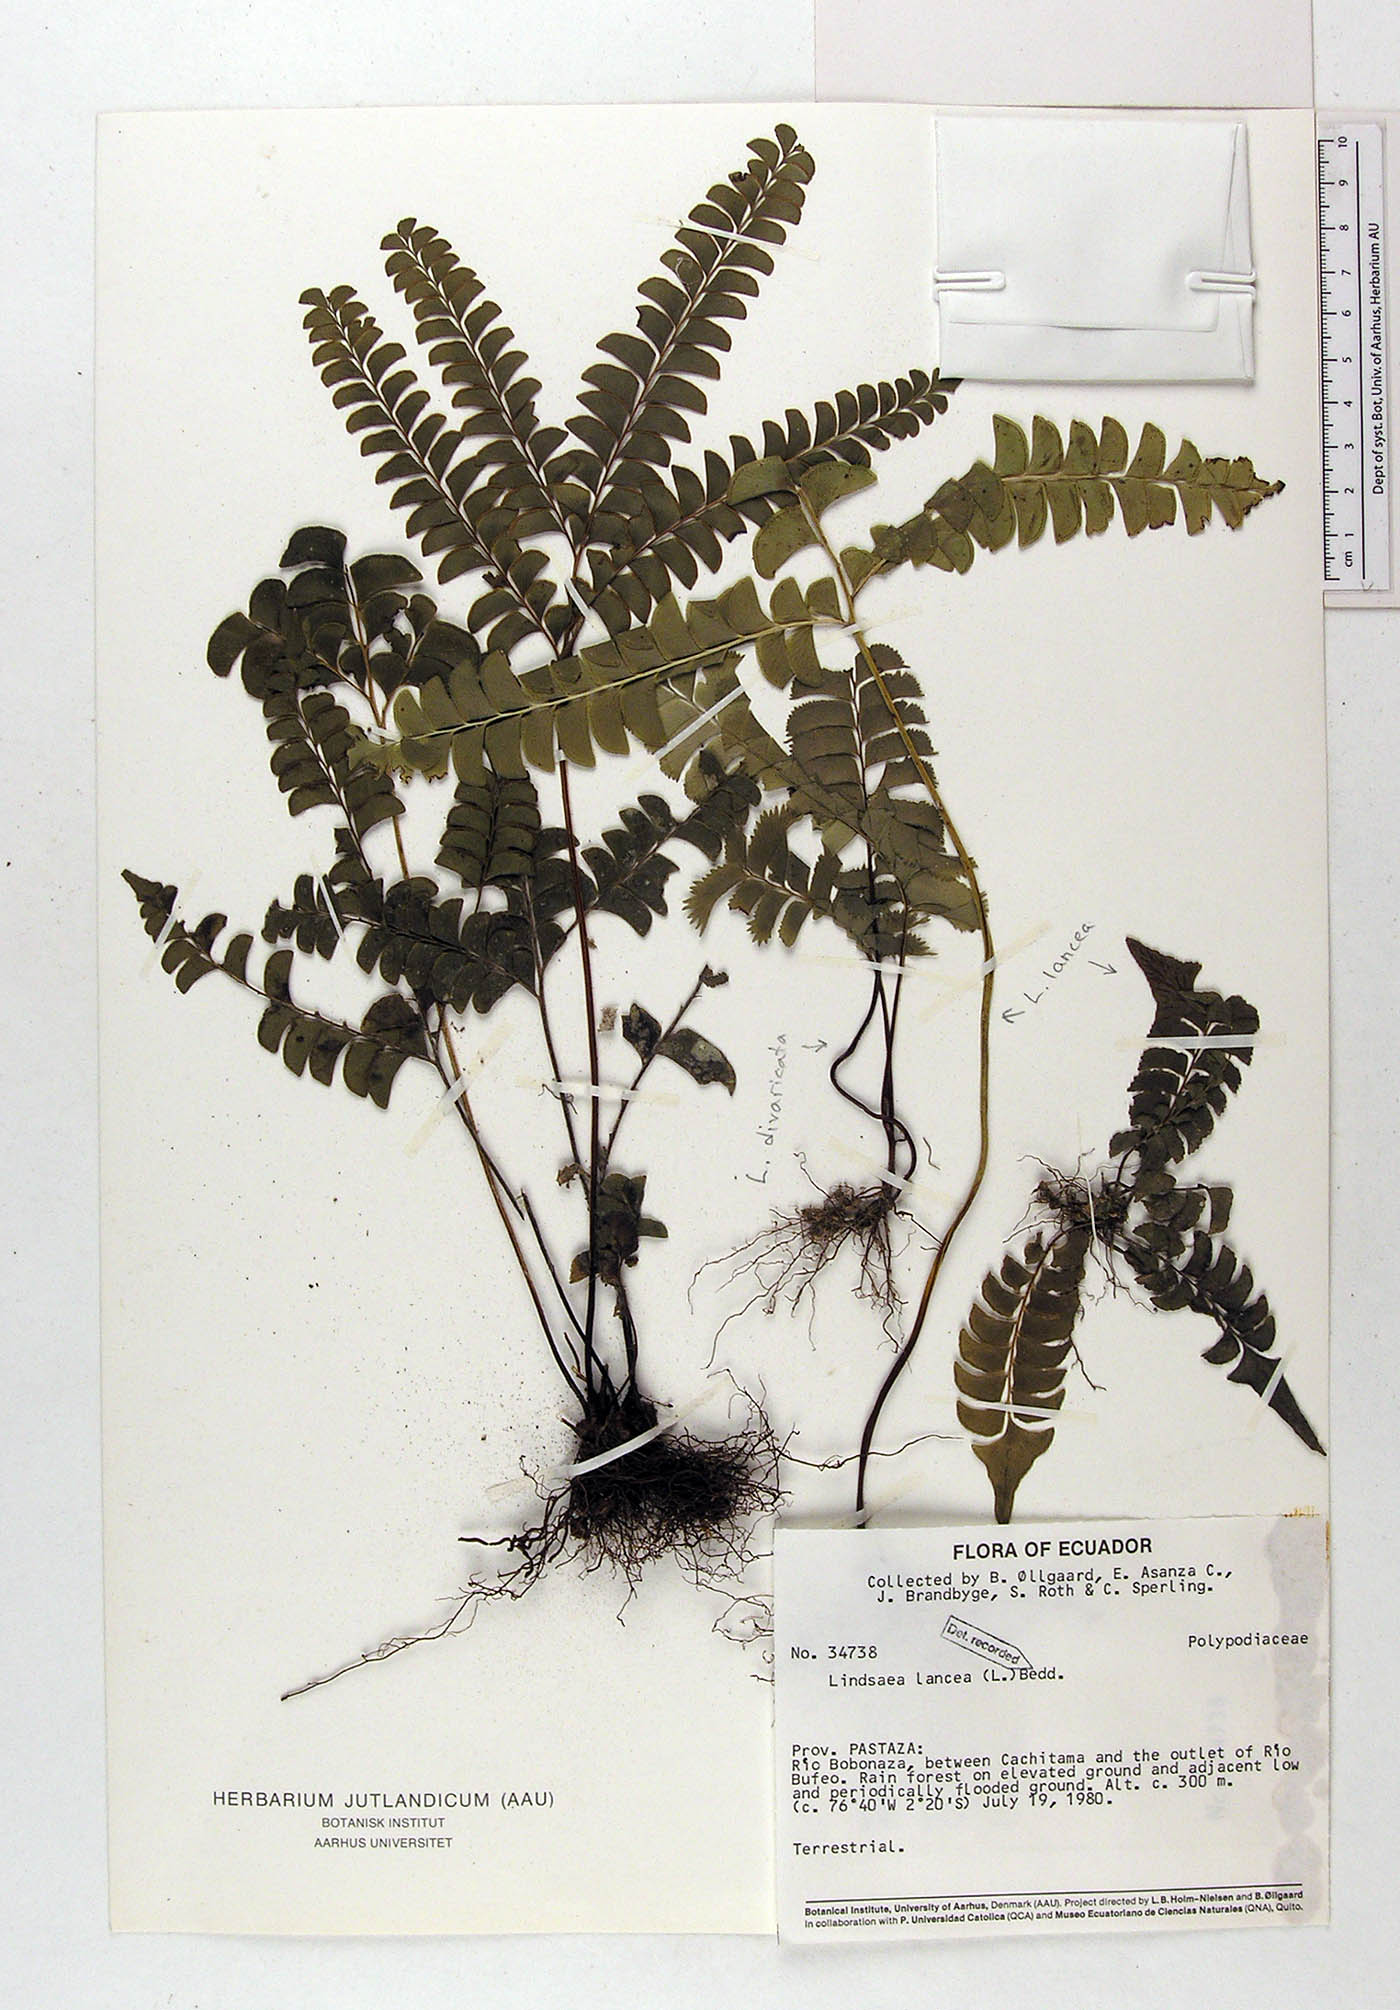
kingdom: Plantae
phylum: Tracheophyta
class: Polypodiopsida
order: Polypodiales
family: Dennstaedtiaceae
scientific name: Dennstaedtiaceae
